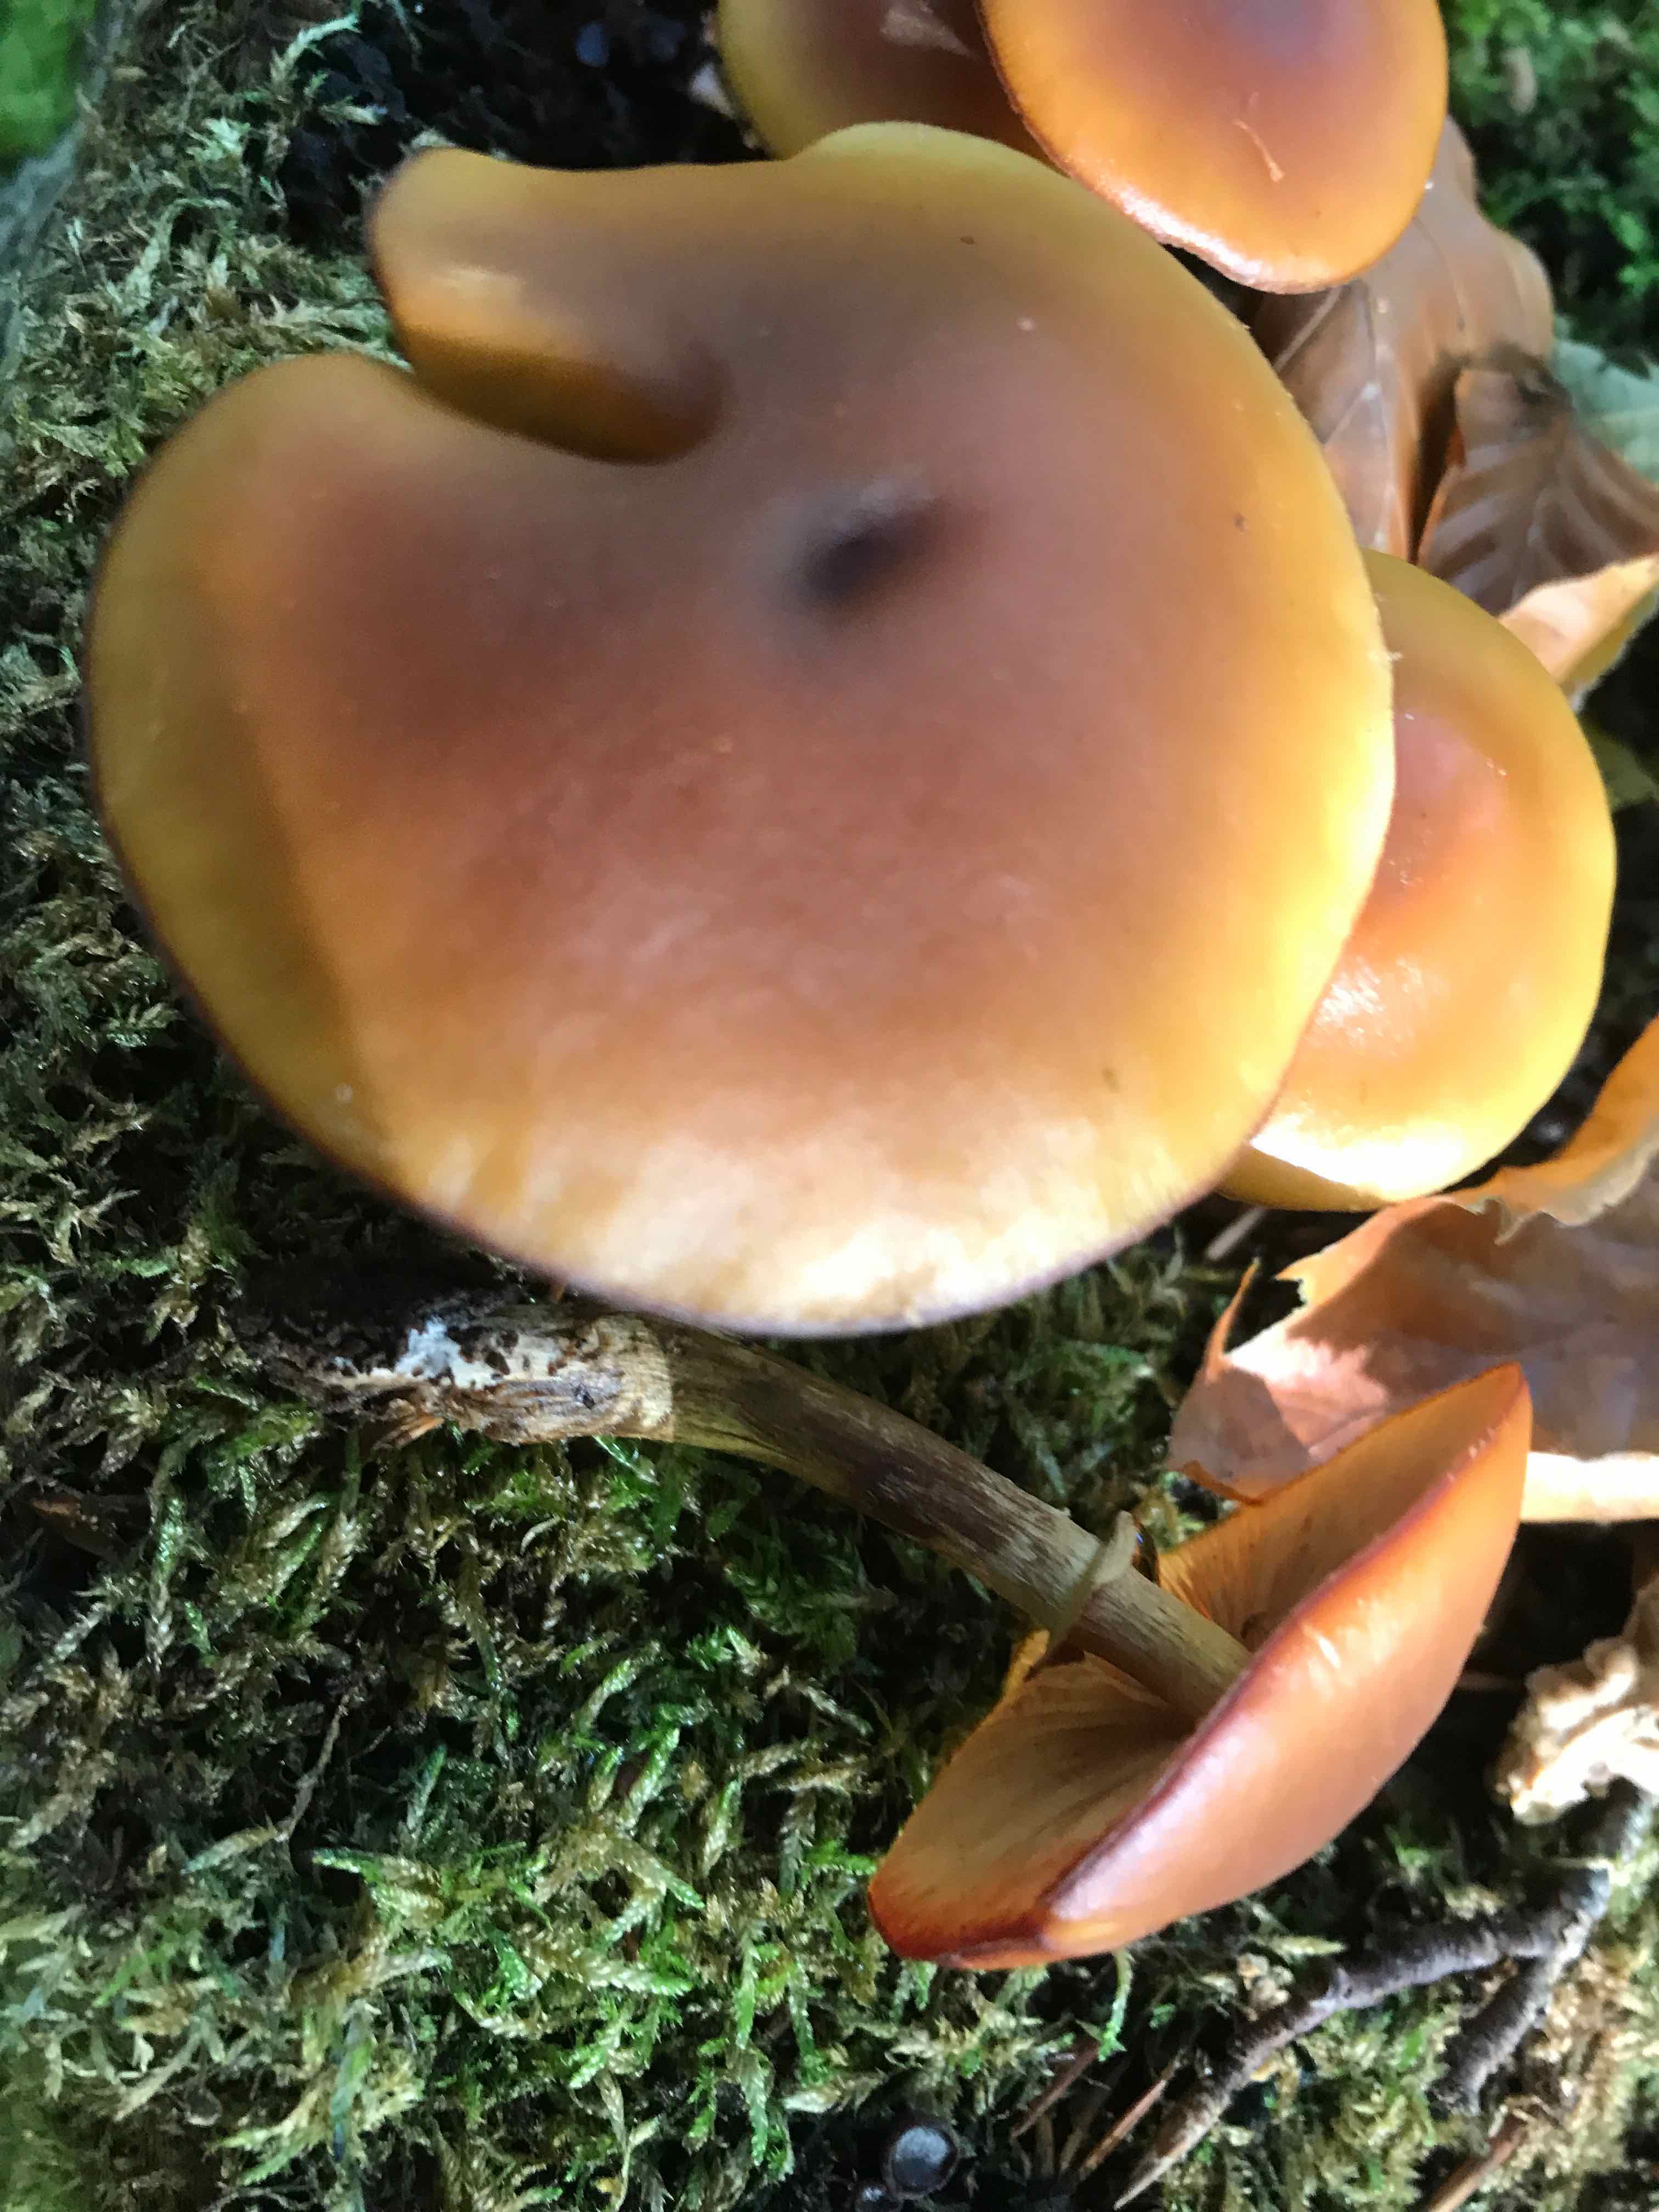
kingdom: Fungi
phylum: Basidiomycota
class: Agaricomycetes
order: Agaricales
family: Hymenogastraceae
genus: Galerina
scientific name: Galerina marginata
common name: randbæltet hjelmhat
